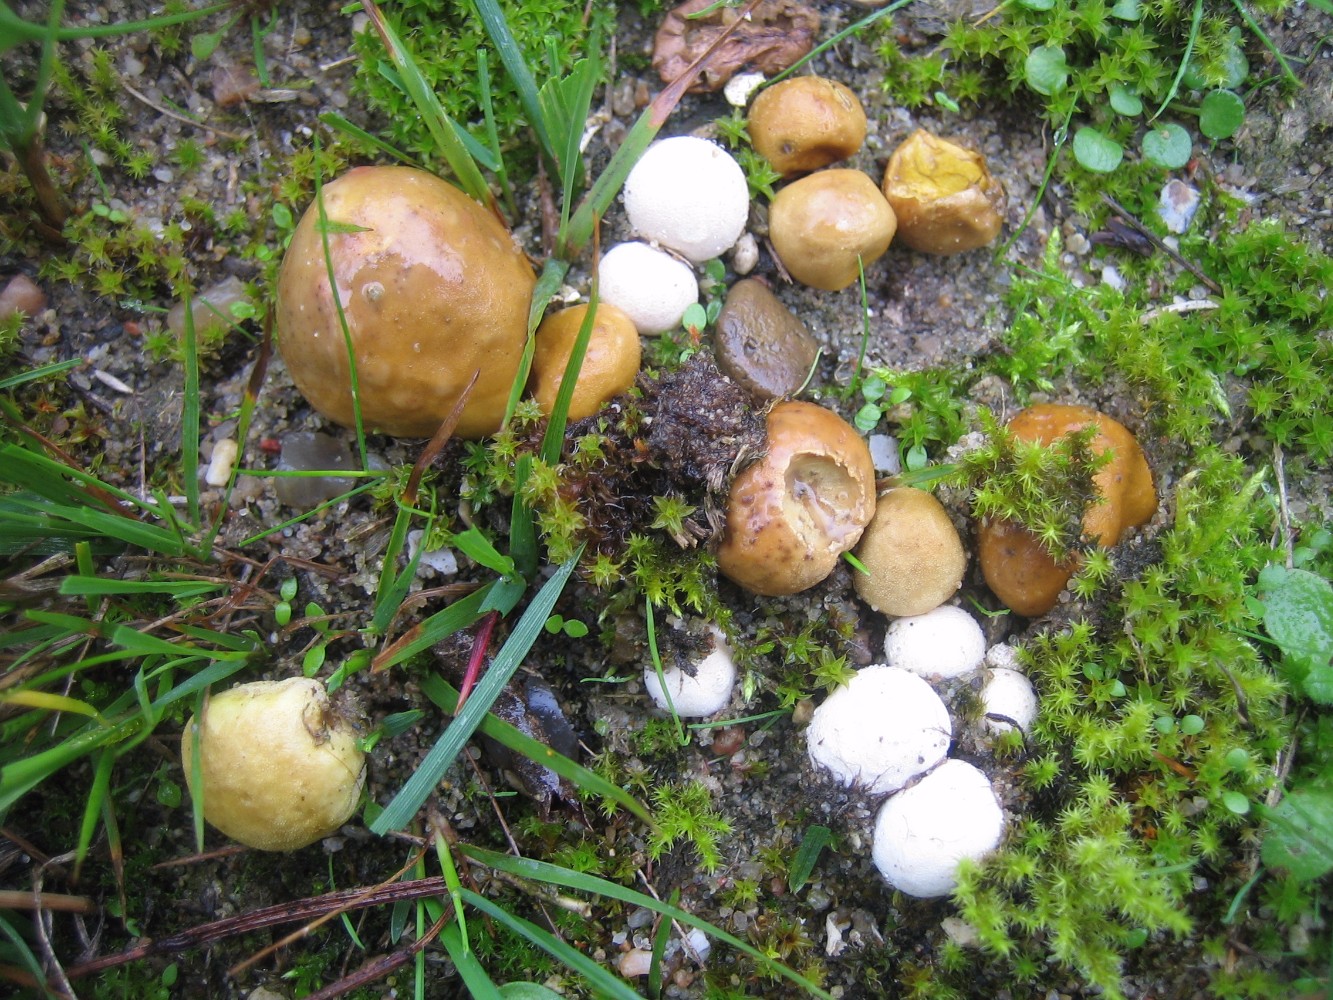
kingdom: Fungi
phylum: Basidiomycota
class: Agaricomycetes
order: Agaricales
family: Lycoperdaceae
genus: Bovista
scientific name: Bovista
